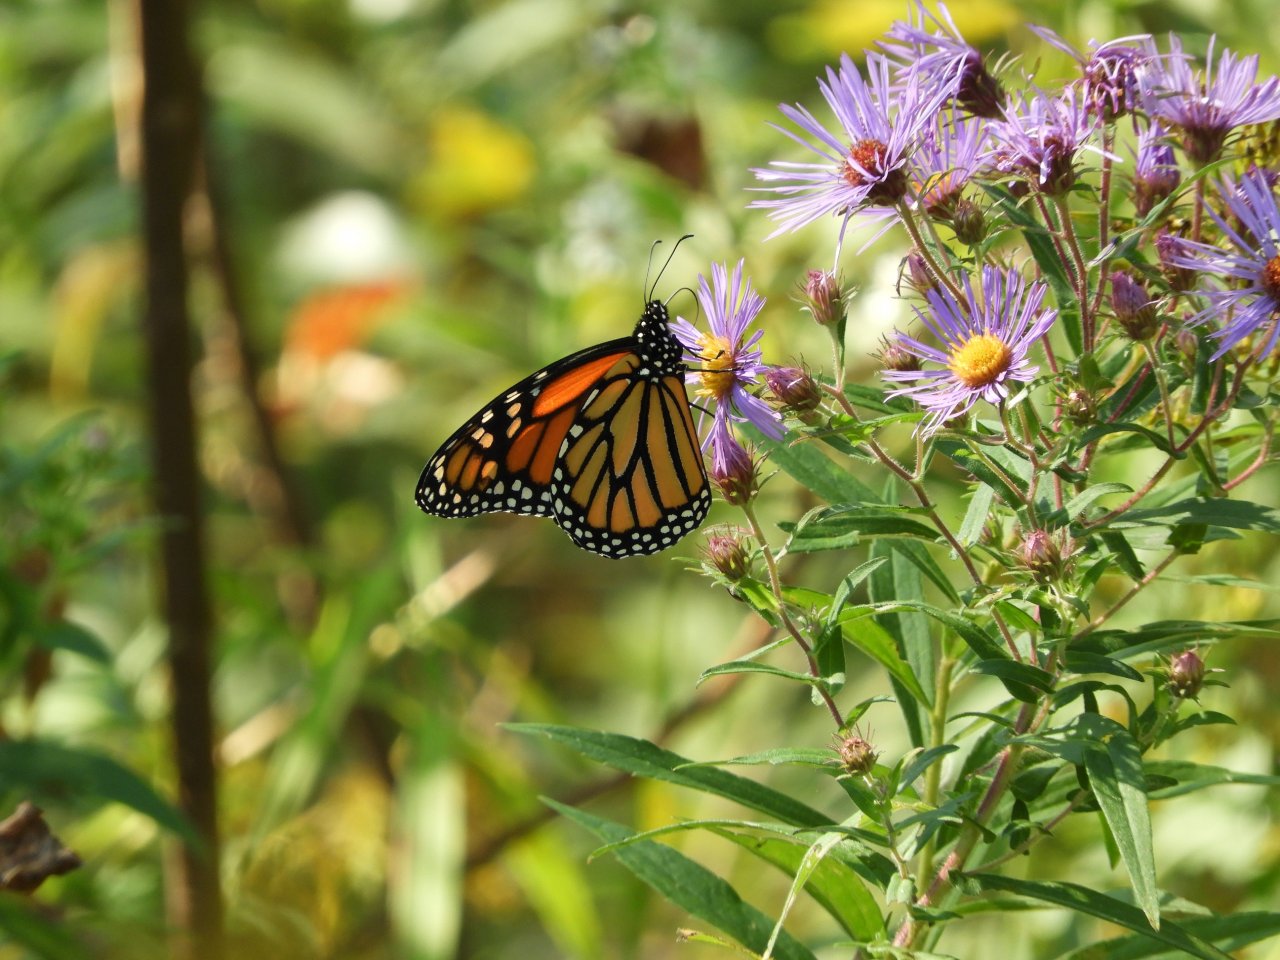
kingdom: Animalia
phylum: Arthropoda
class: Insecta
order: Lepidoptera
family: Nymphalidae
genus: Danaus
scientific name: Danaus plexippus
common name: Monarch
